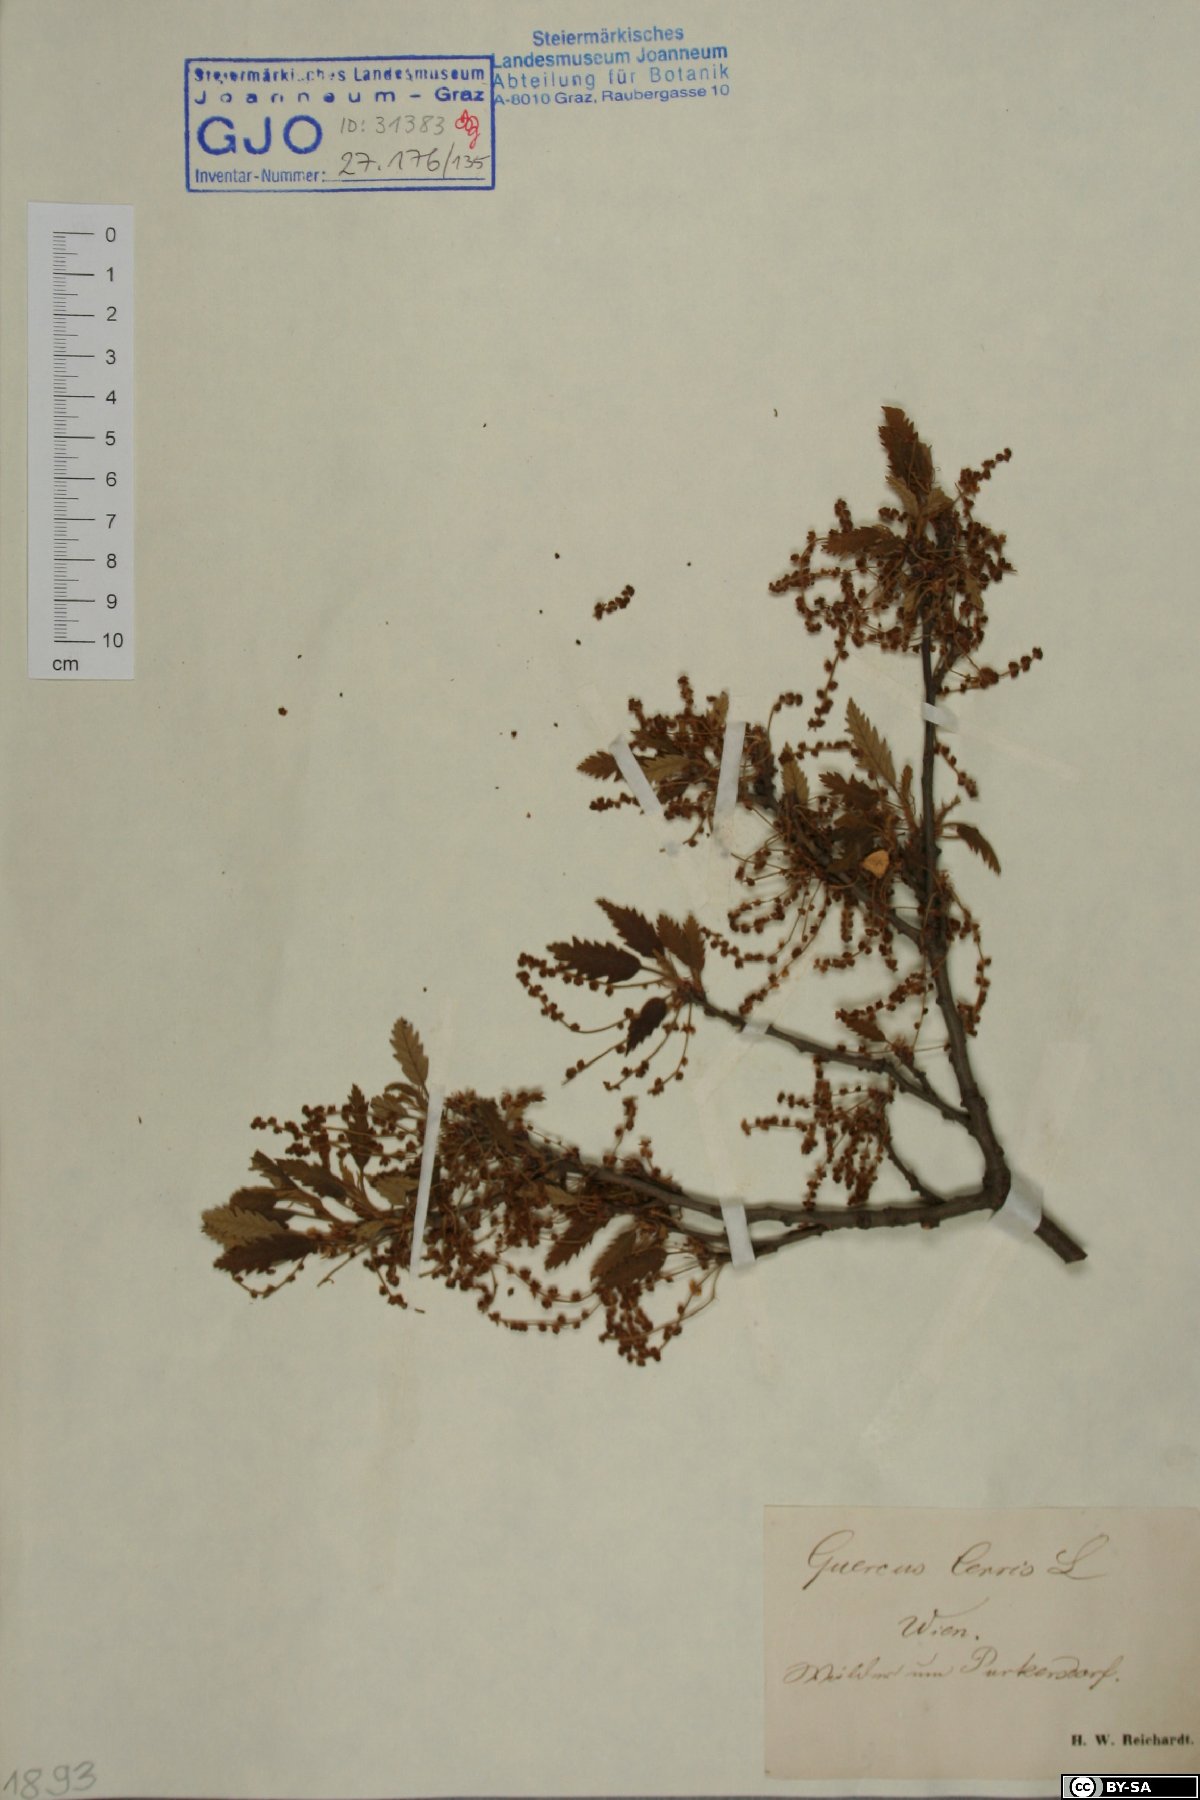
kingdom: Plantae
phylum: Tracheophyta
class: Magnoliopsida
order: Fagales
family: Fagaceae
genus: Quercus
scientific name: Quercus cerris
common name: Turkey oak
